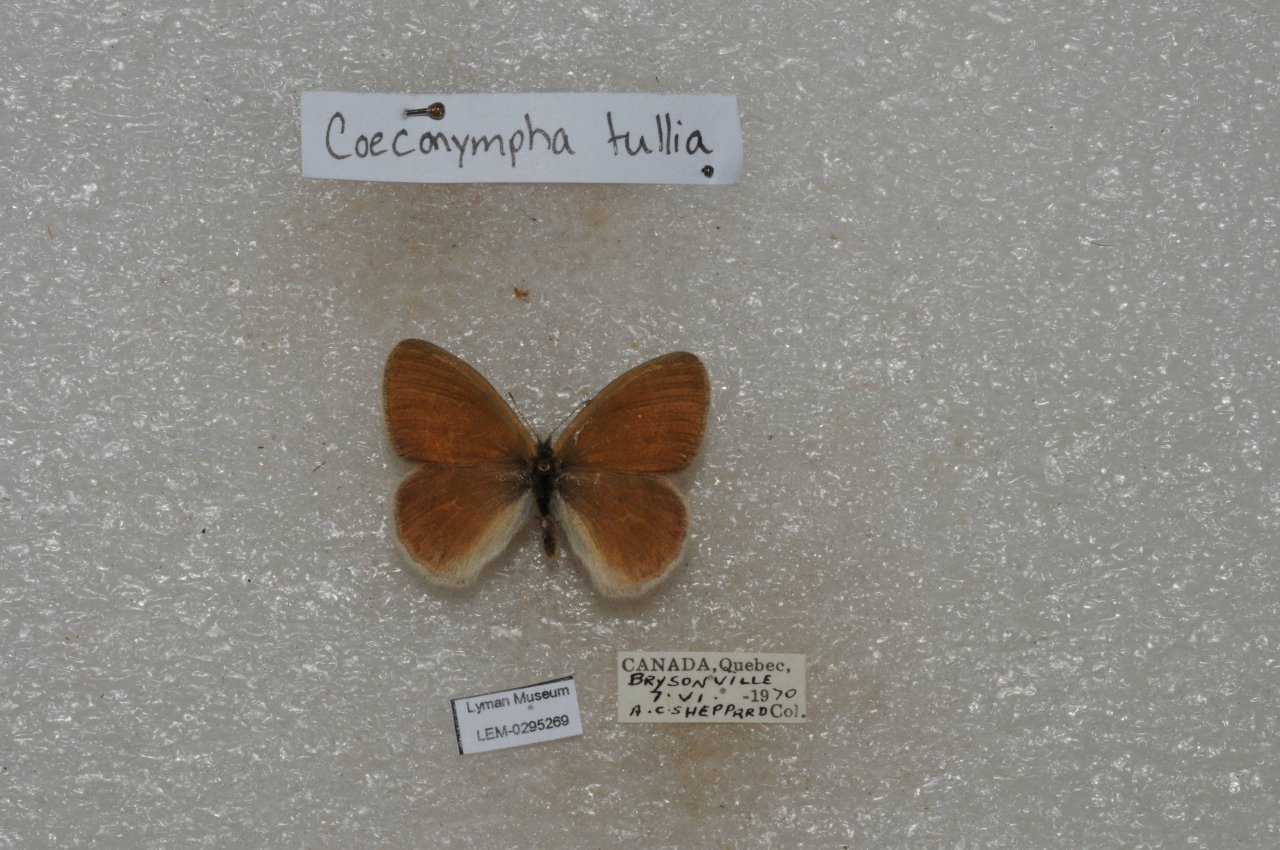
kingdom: Animalia
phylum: Arthropoda
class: Insecta
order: Lepidoptera
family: Nymphalidae
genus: Coenonympha
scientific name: Coenonympha tullia
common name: Large Heath
